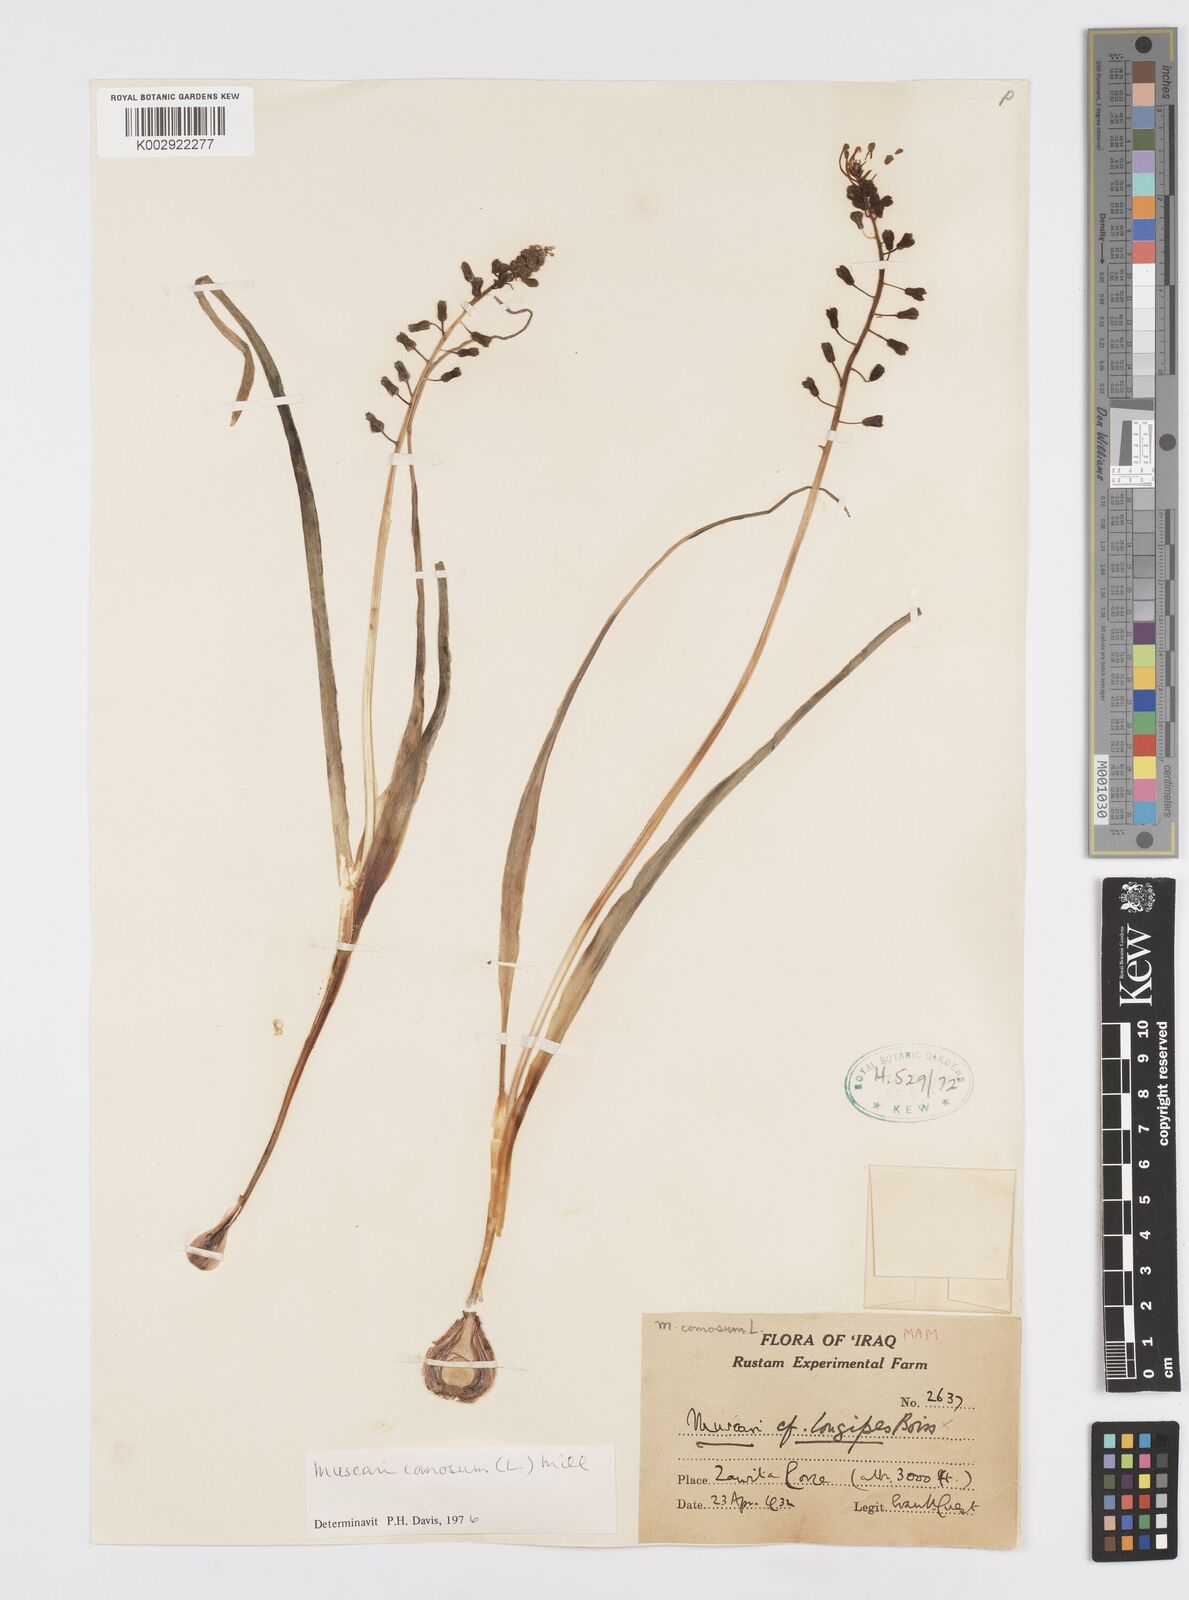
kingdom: Plantae
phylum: Tracheophyta
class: Liliopsida
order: Asparagales
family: Asparagaceae
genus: Muscari
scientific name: Muscari comosum
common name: Tassel hyacinth
